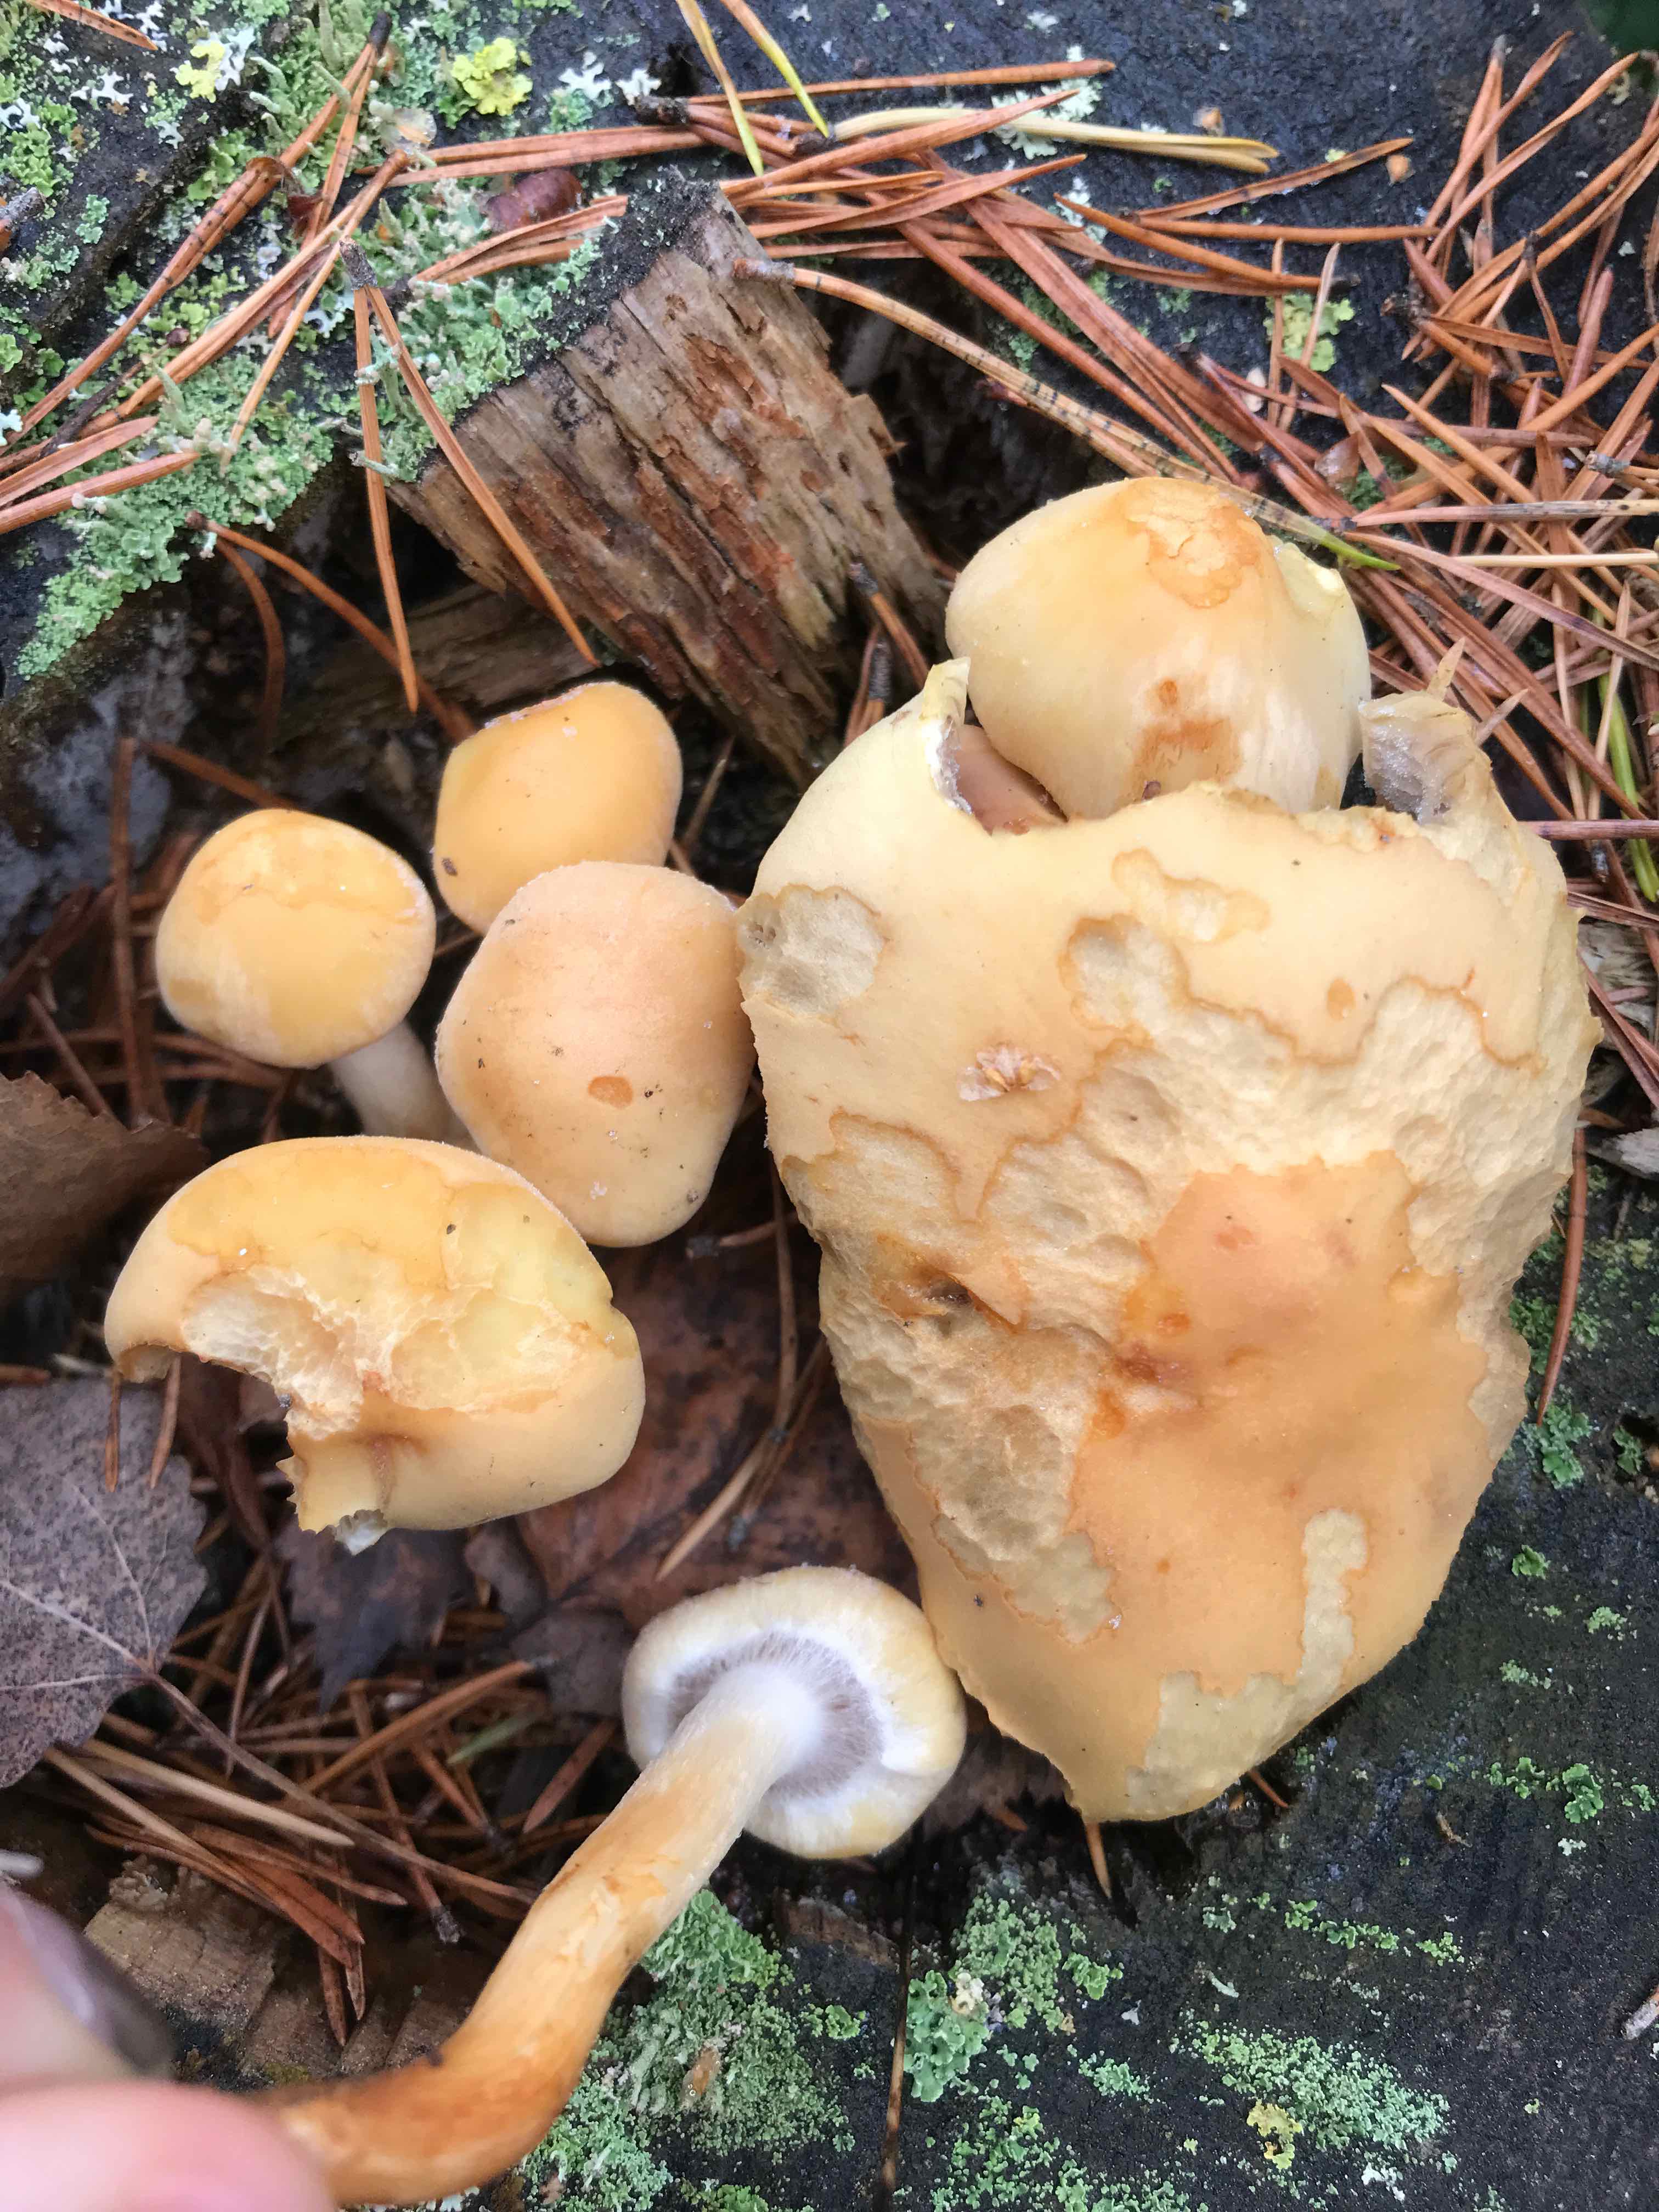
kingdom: Fungi
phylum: Basidiomycota
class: Agaricomycetes
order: Agaricales
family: Strophariaceae
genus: Hypholoma
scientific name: Hypholoma capnoides
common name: gran-svovlhat
